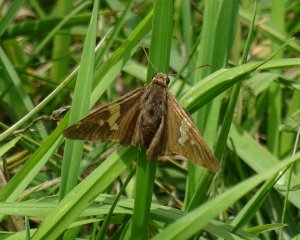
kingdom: Animalia
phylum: Arthropoda
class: Insecta
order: Lepidoptera
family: Hesperiidae
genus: Epargyreus
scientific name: Epargyreus clarus
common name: Silver-spotted Skipper
